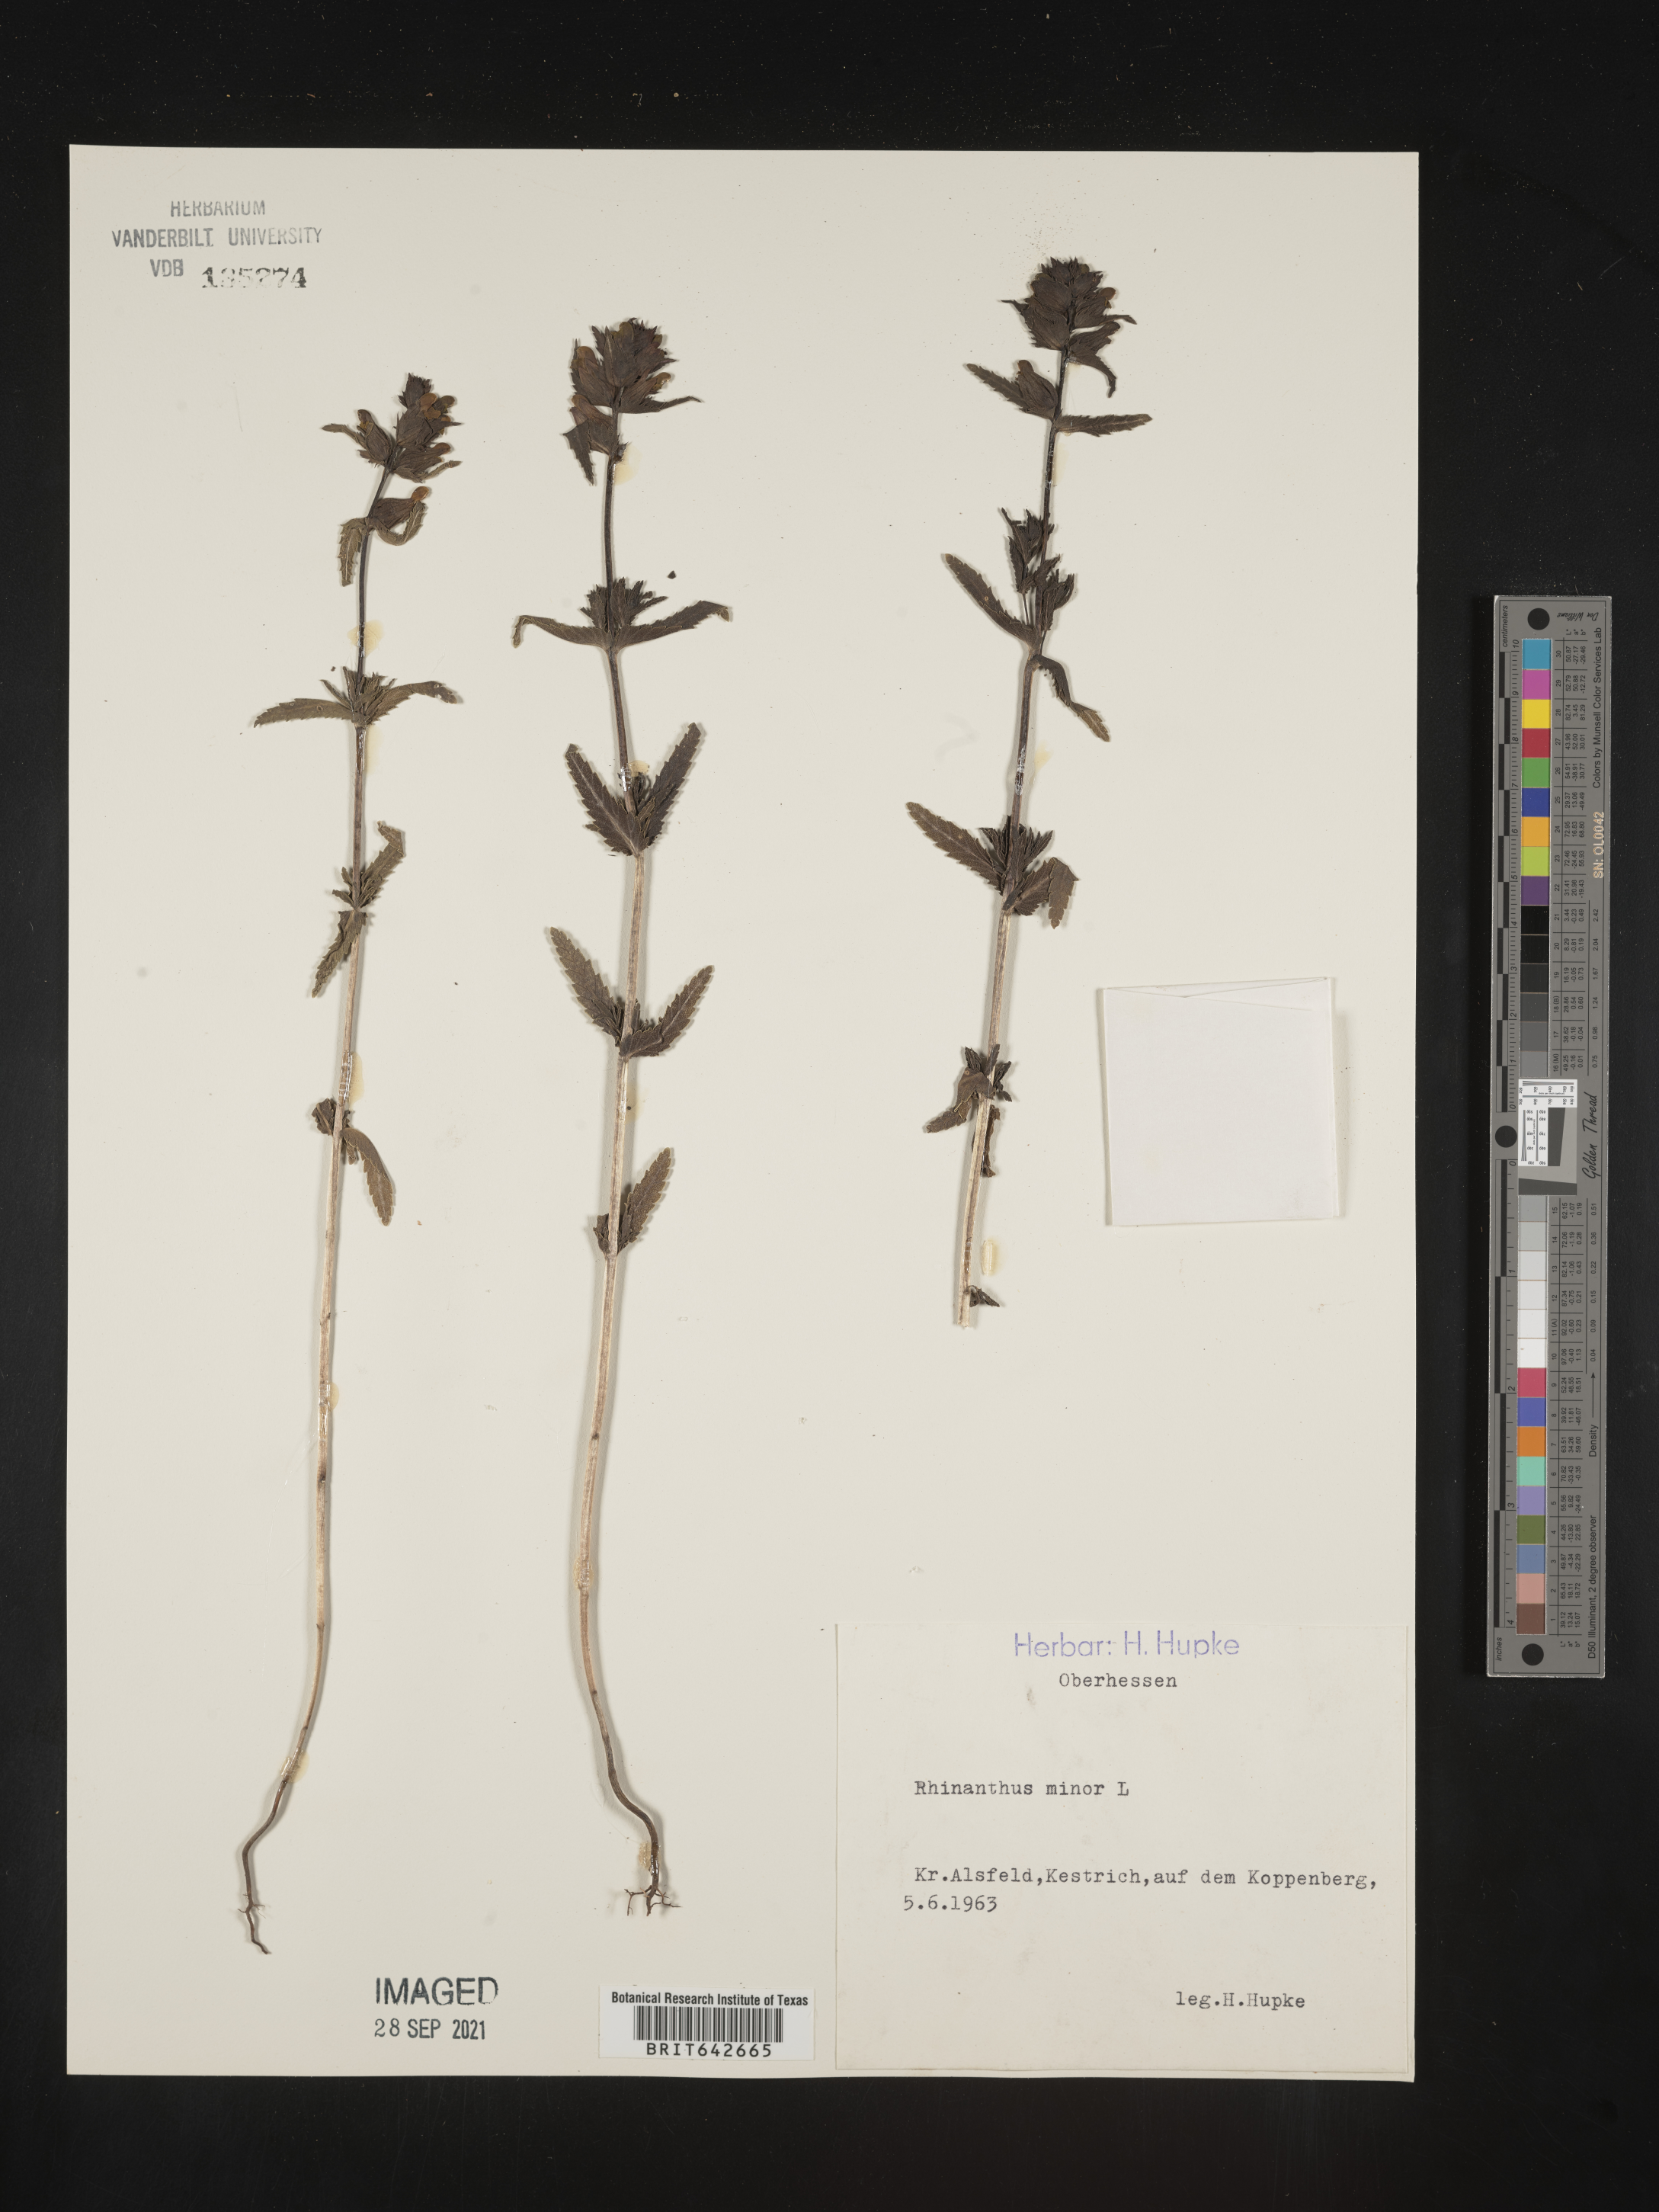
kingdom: Plantae
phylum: Tracheophyta
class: Magnoliopsida
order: Lamiales
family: Orobanchaceae
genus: Rhinanthus
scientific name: Rhinanthus
